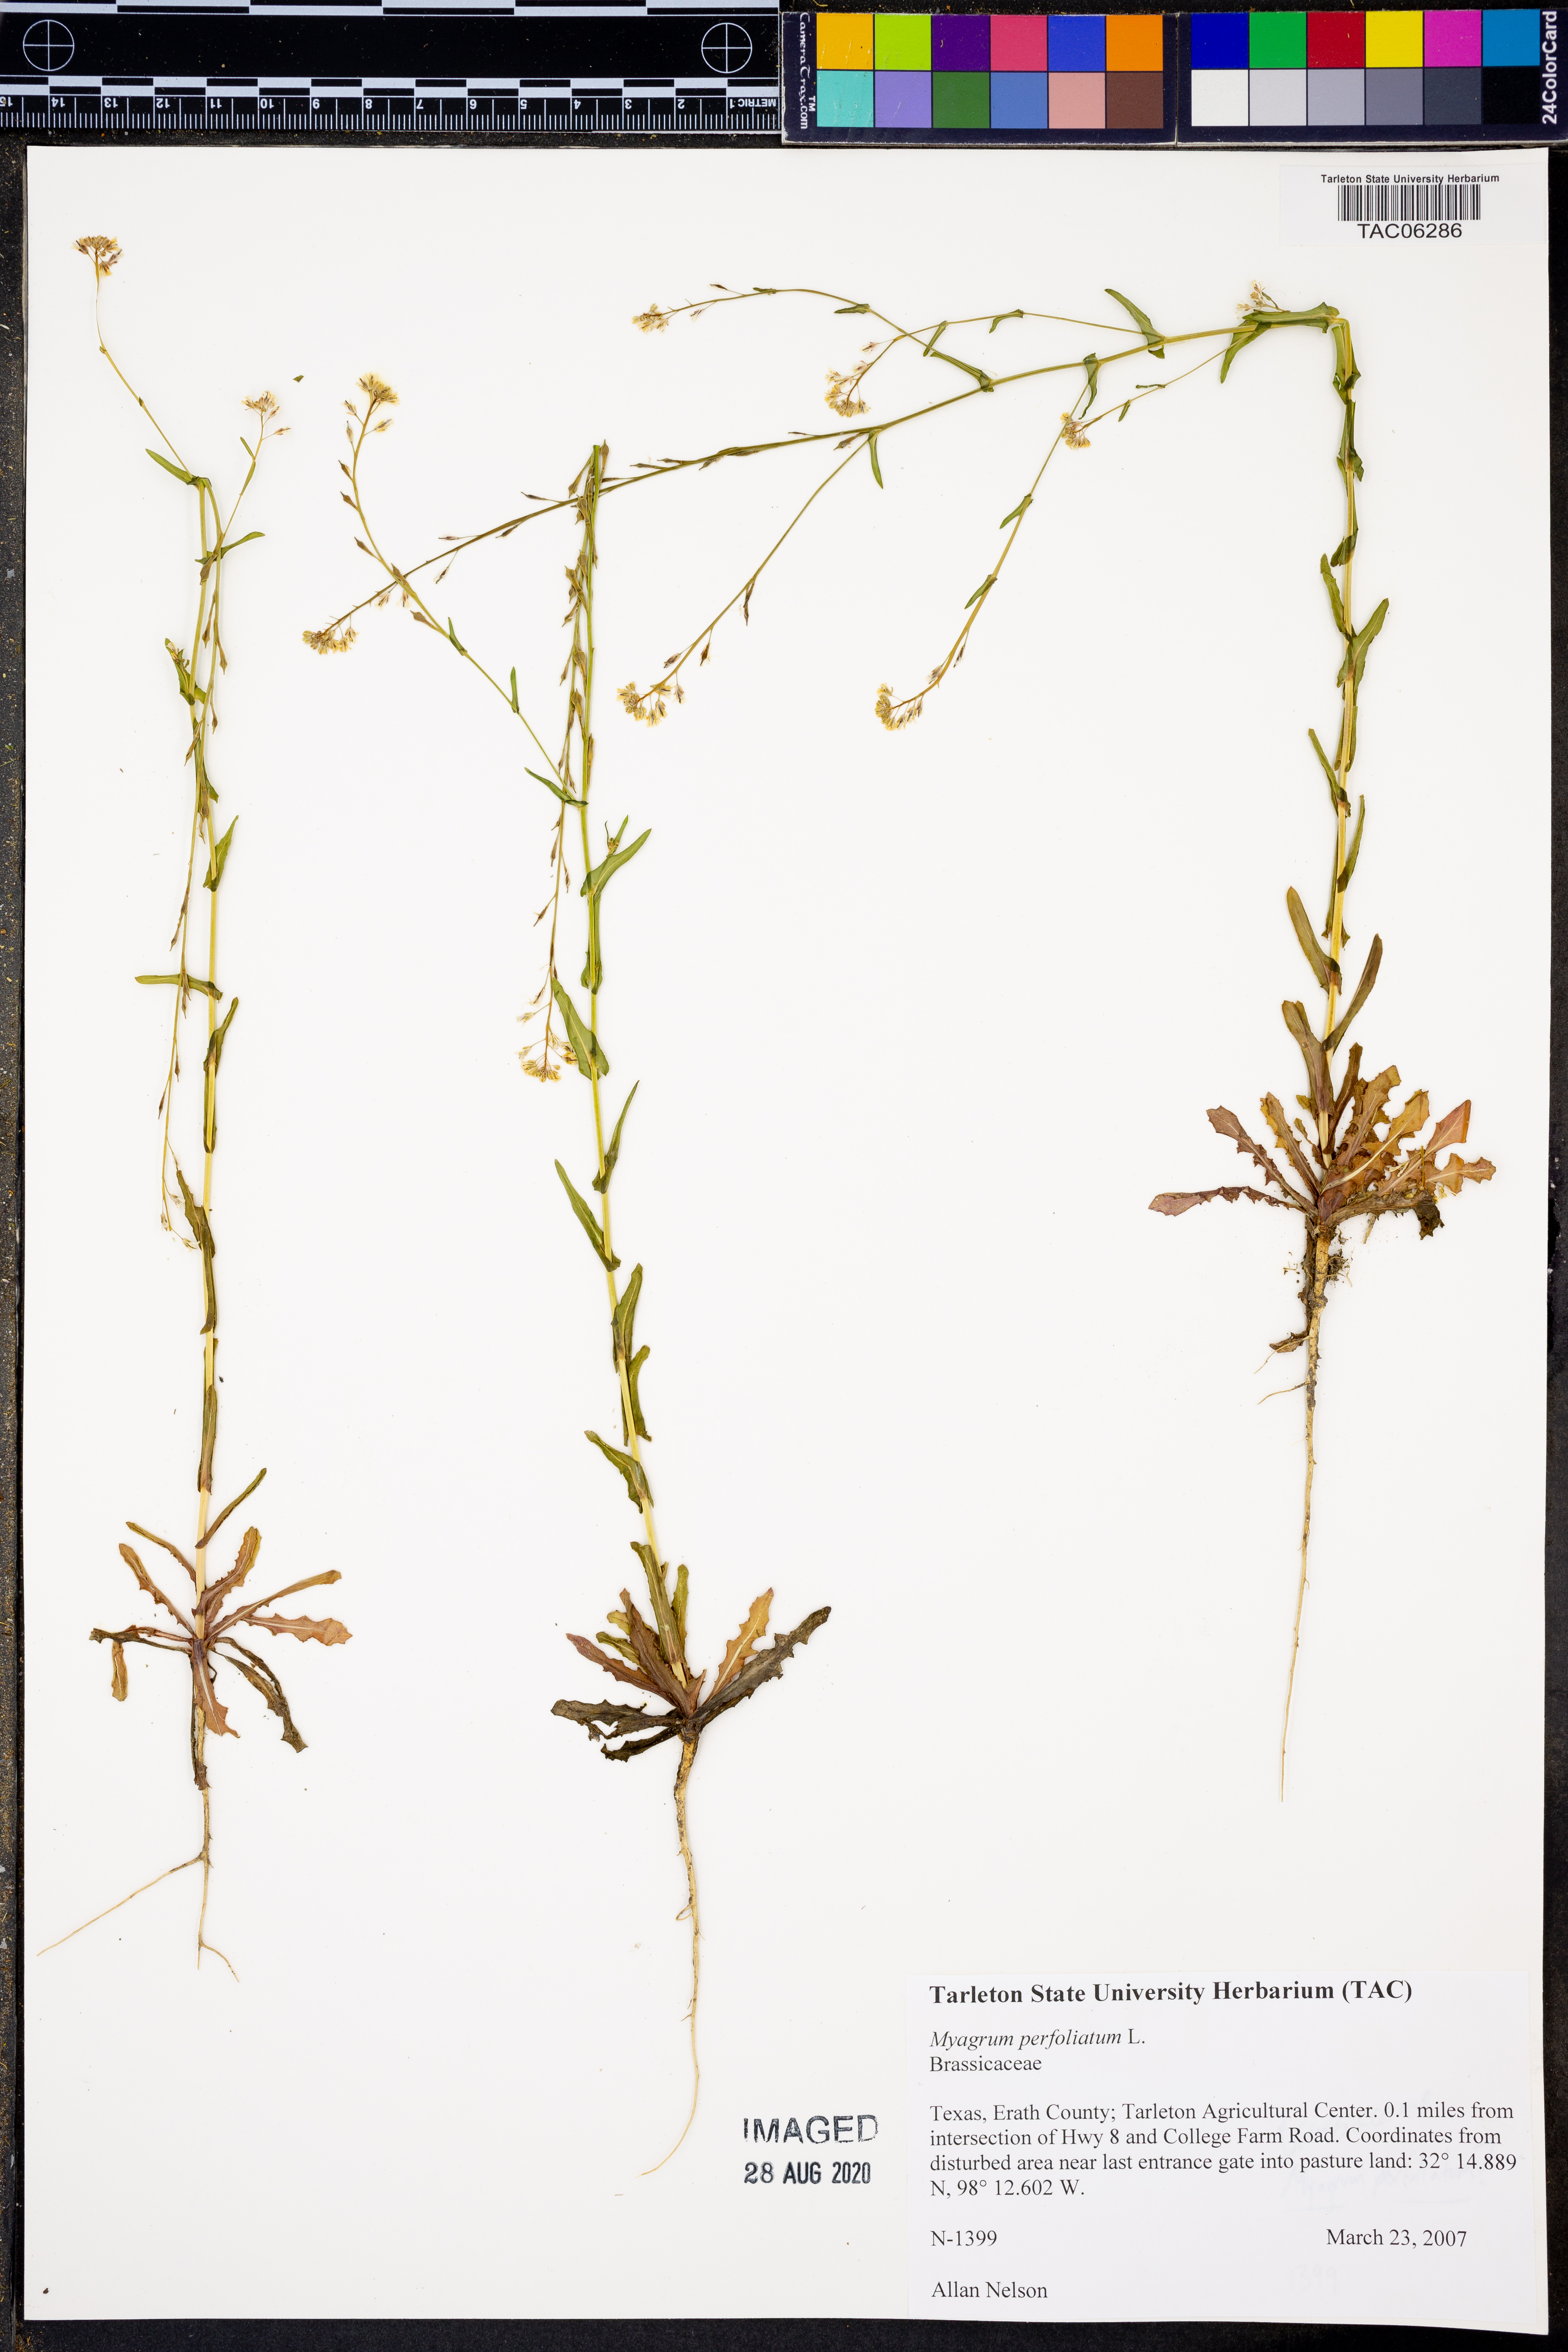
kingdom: Plantae
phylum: Tracheophyta
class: Magnoliopsida
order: Brassicales
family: Brassicaceae
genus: Myagrum
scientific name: Myagrum perfoliatum
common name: Mitre cress
